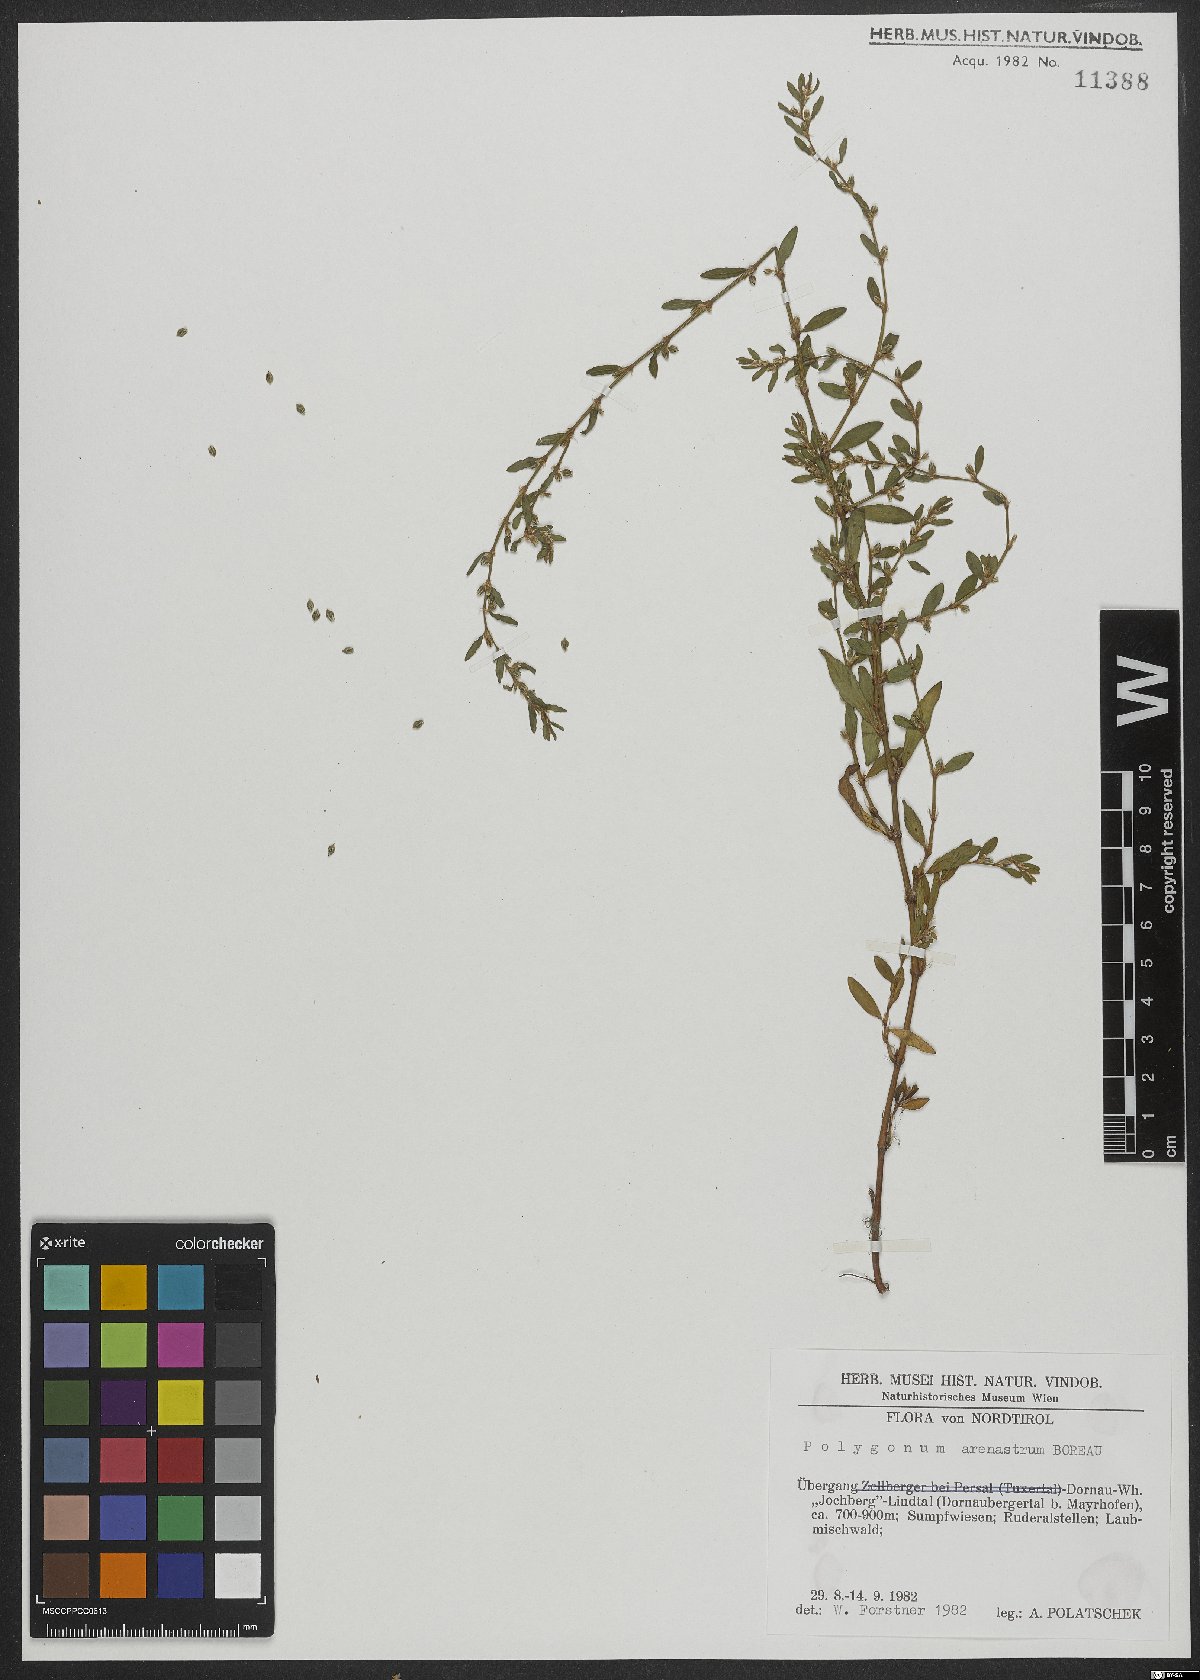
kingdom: Plantae
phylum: Tracheophyta
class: Magnoliopsida
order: Caryophyllales
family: Polygonaceae
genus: Polygonum
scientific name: Polygonum arenastrum
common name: Equal-leaved knotgrass
